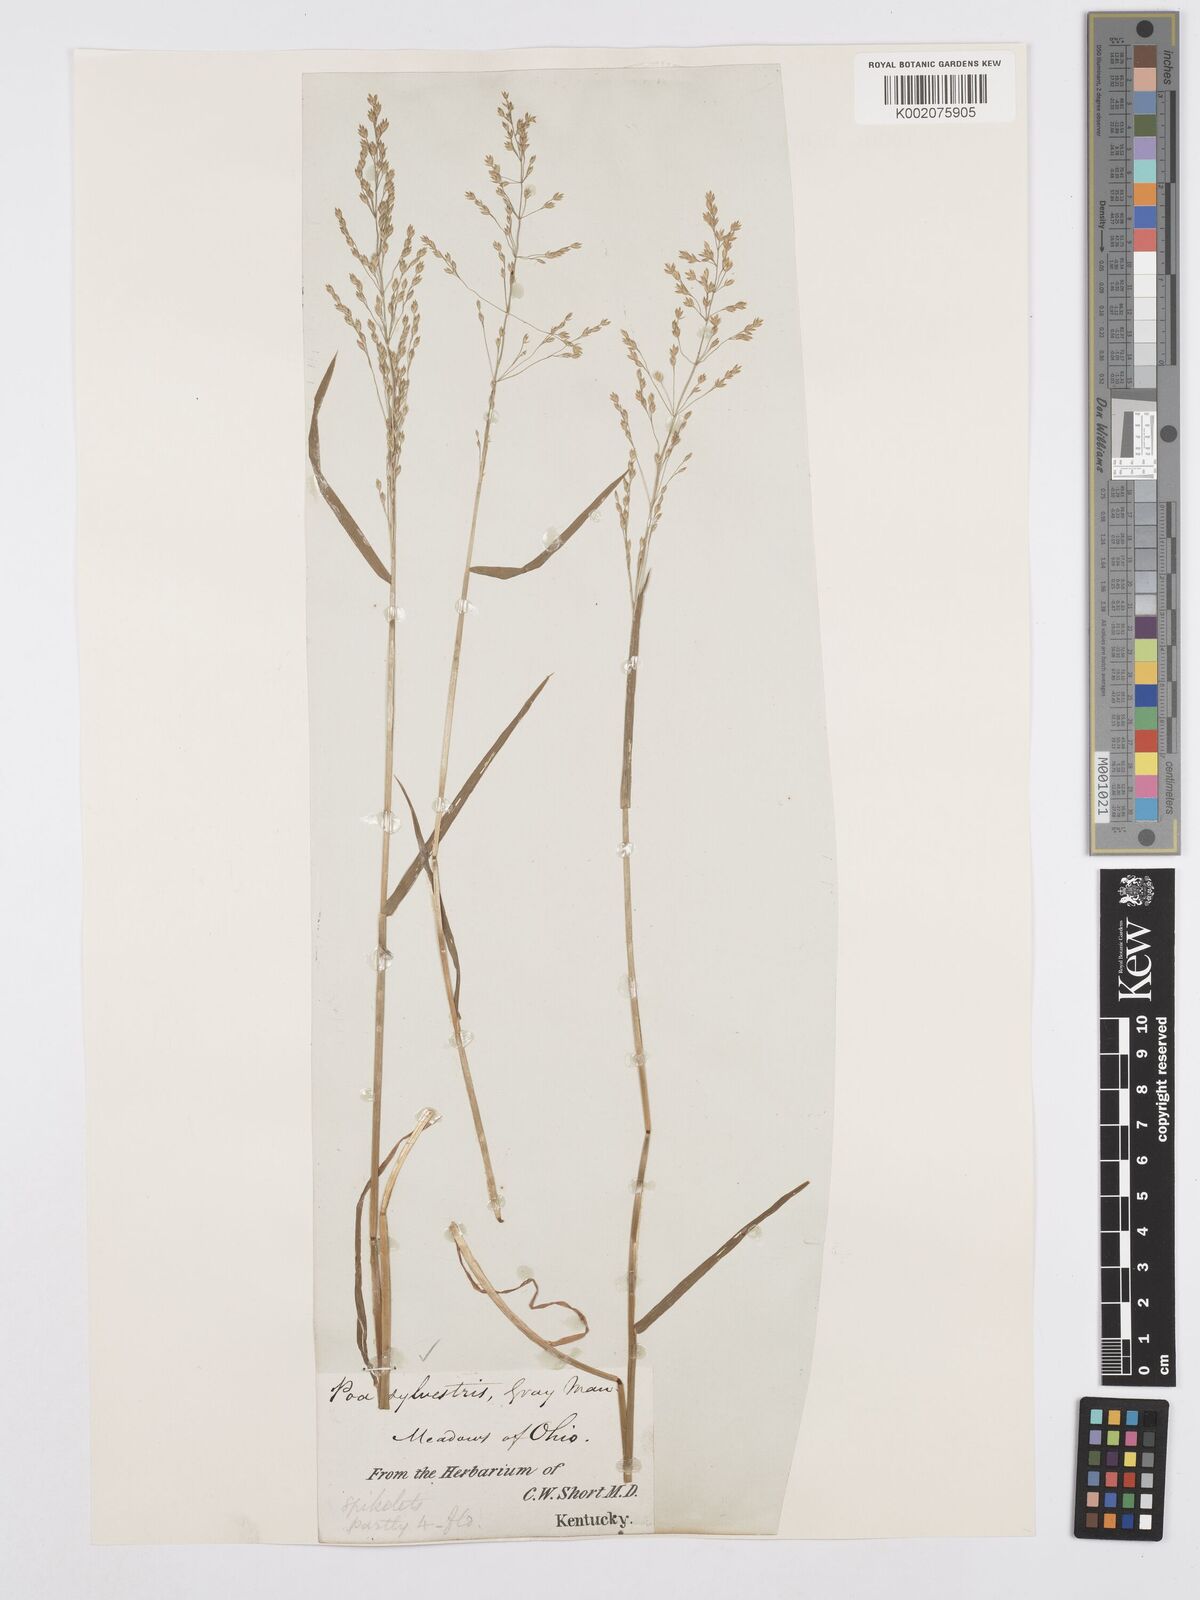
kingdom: Plantae
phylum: Tracheophyta
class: Liliopsida
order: Poales
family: Poaceae
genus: Poa
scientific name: Poa sylvestris
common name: North american woodland bluegrass
